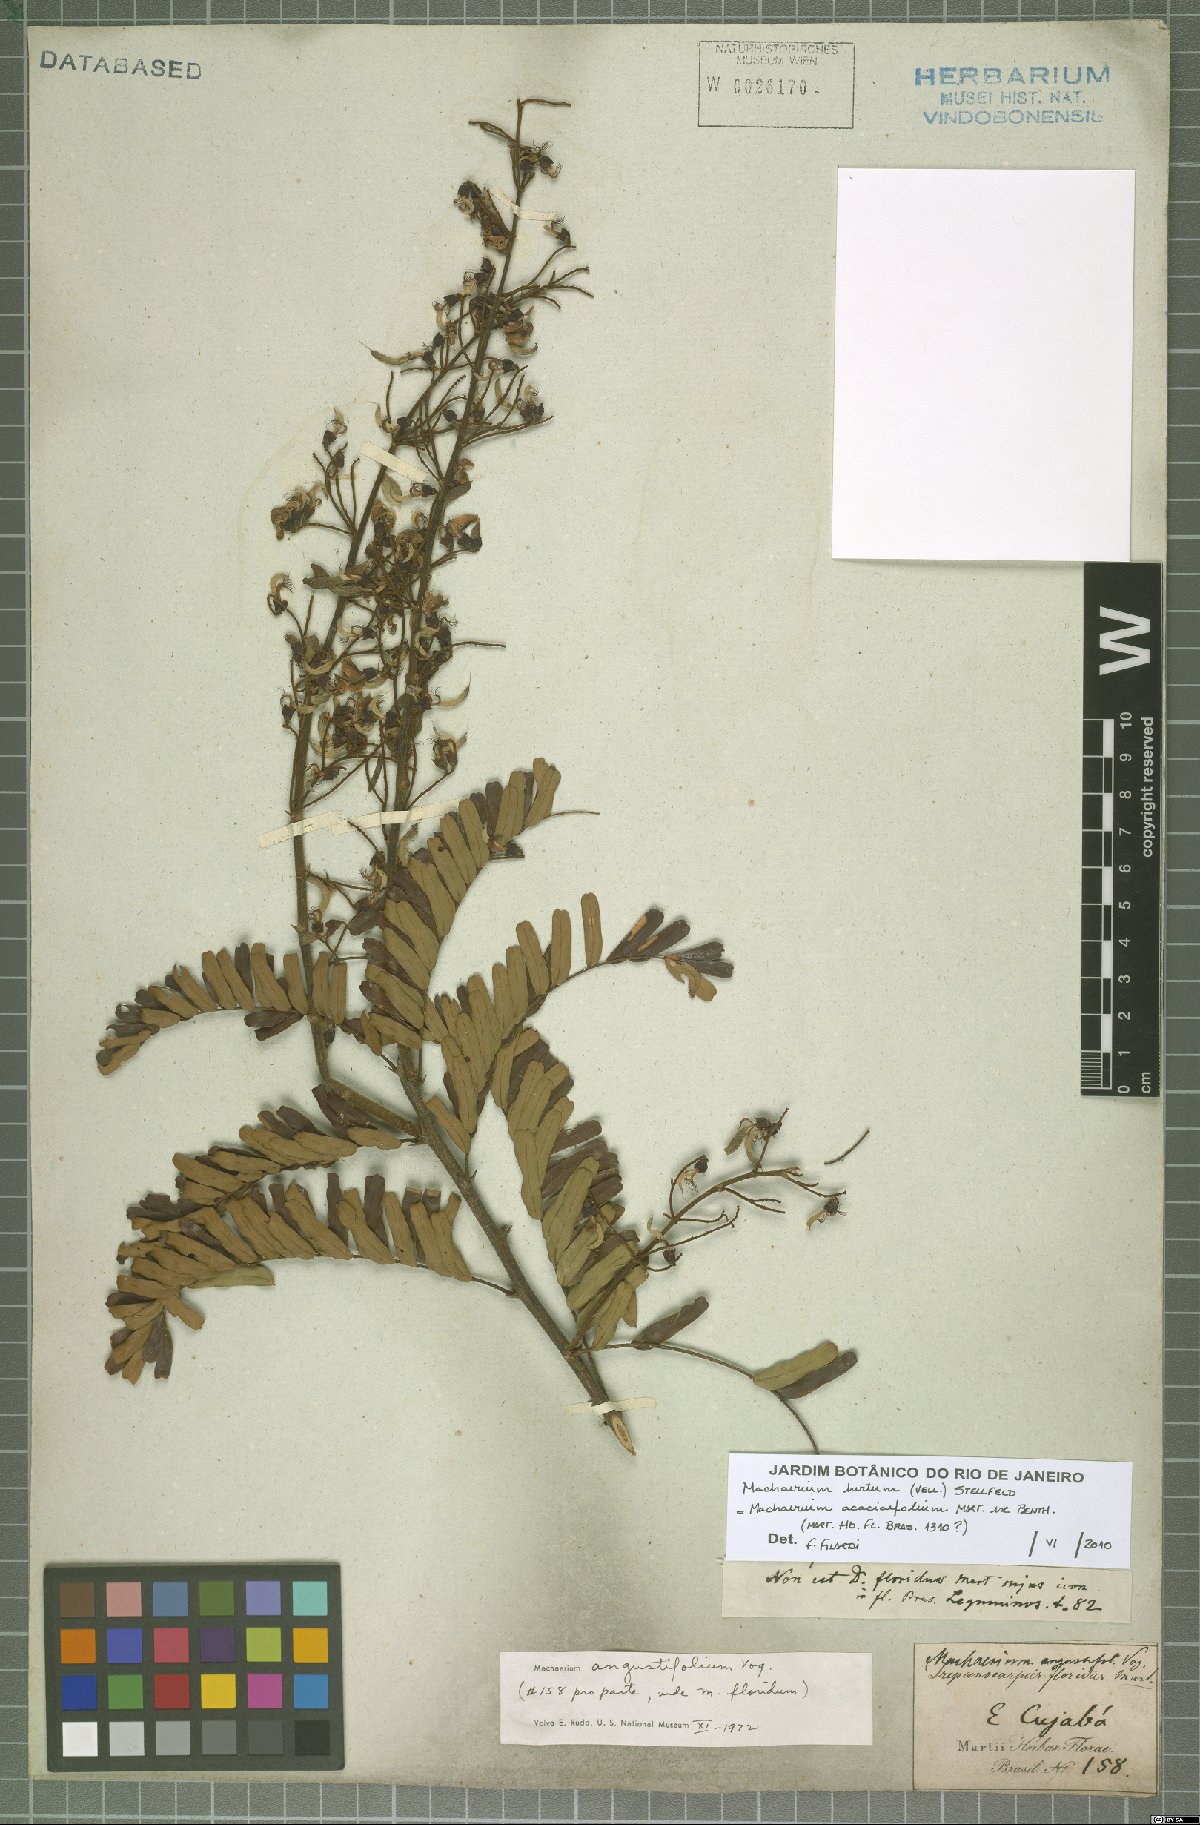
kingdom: Plantae
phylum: Tracheophyta
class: Magnoliopsida
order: Fabales
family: Fabaceae
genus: Machaerium
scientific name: Machaerium hirtum
